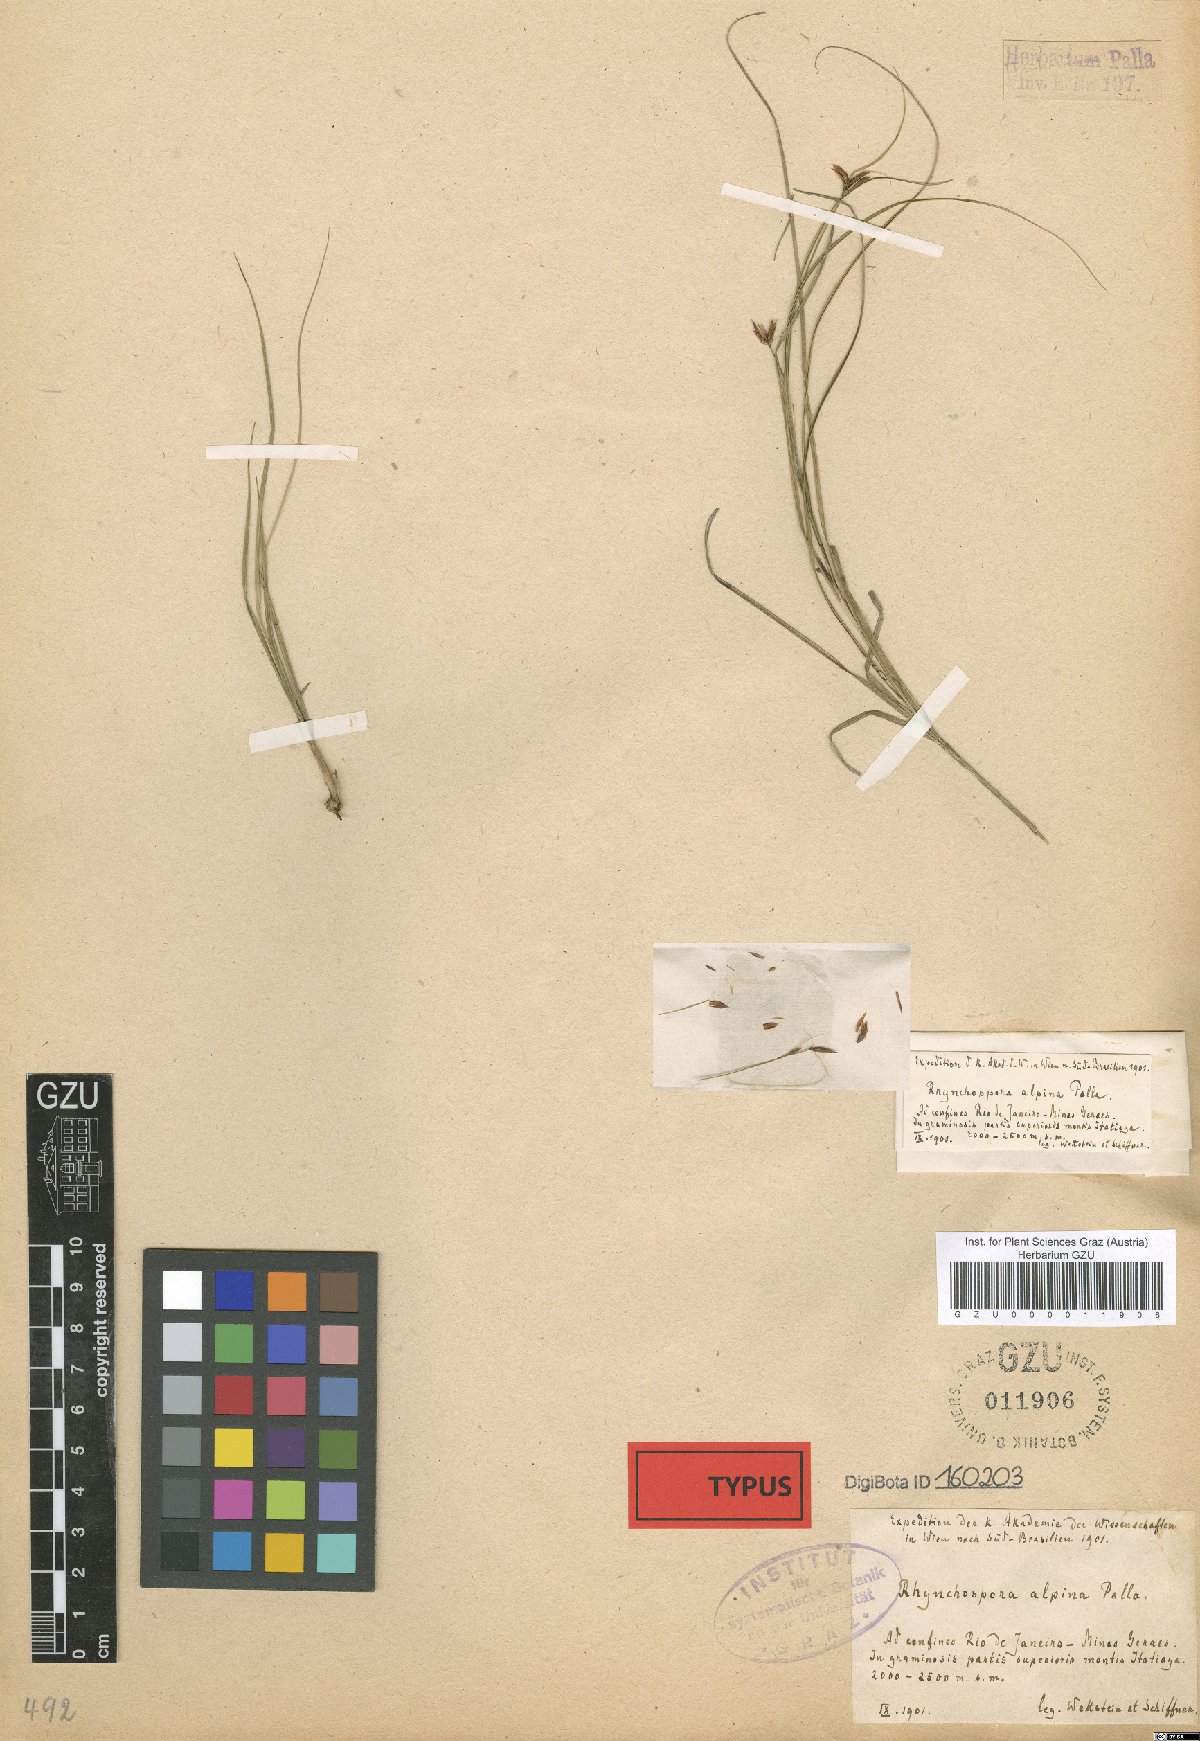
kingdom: Plantae
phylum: Tracheophyta
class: Liliopsida
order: Poales
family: Cyperaceae
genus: Rhynchospora
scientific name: Rhynchospora biflora
